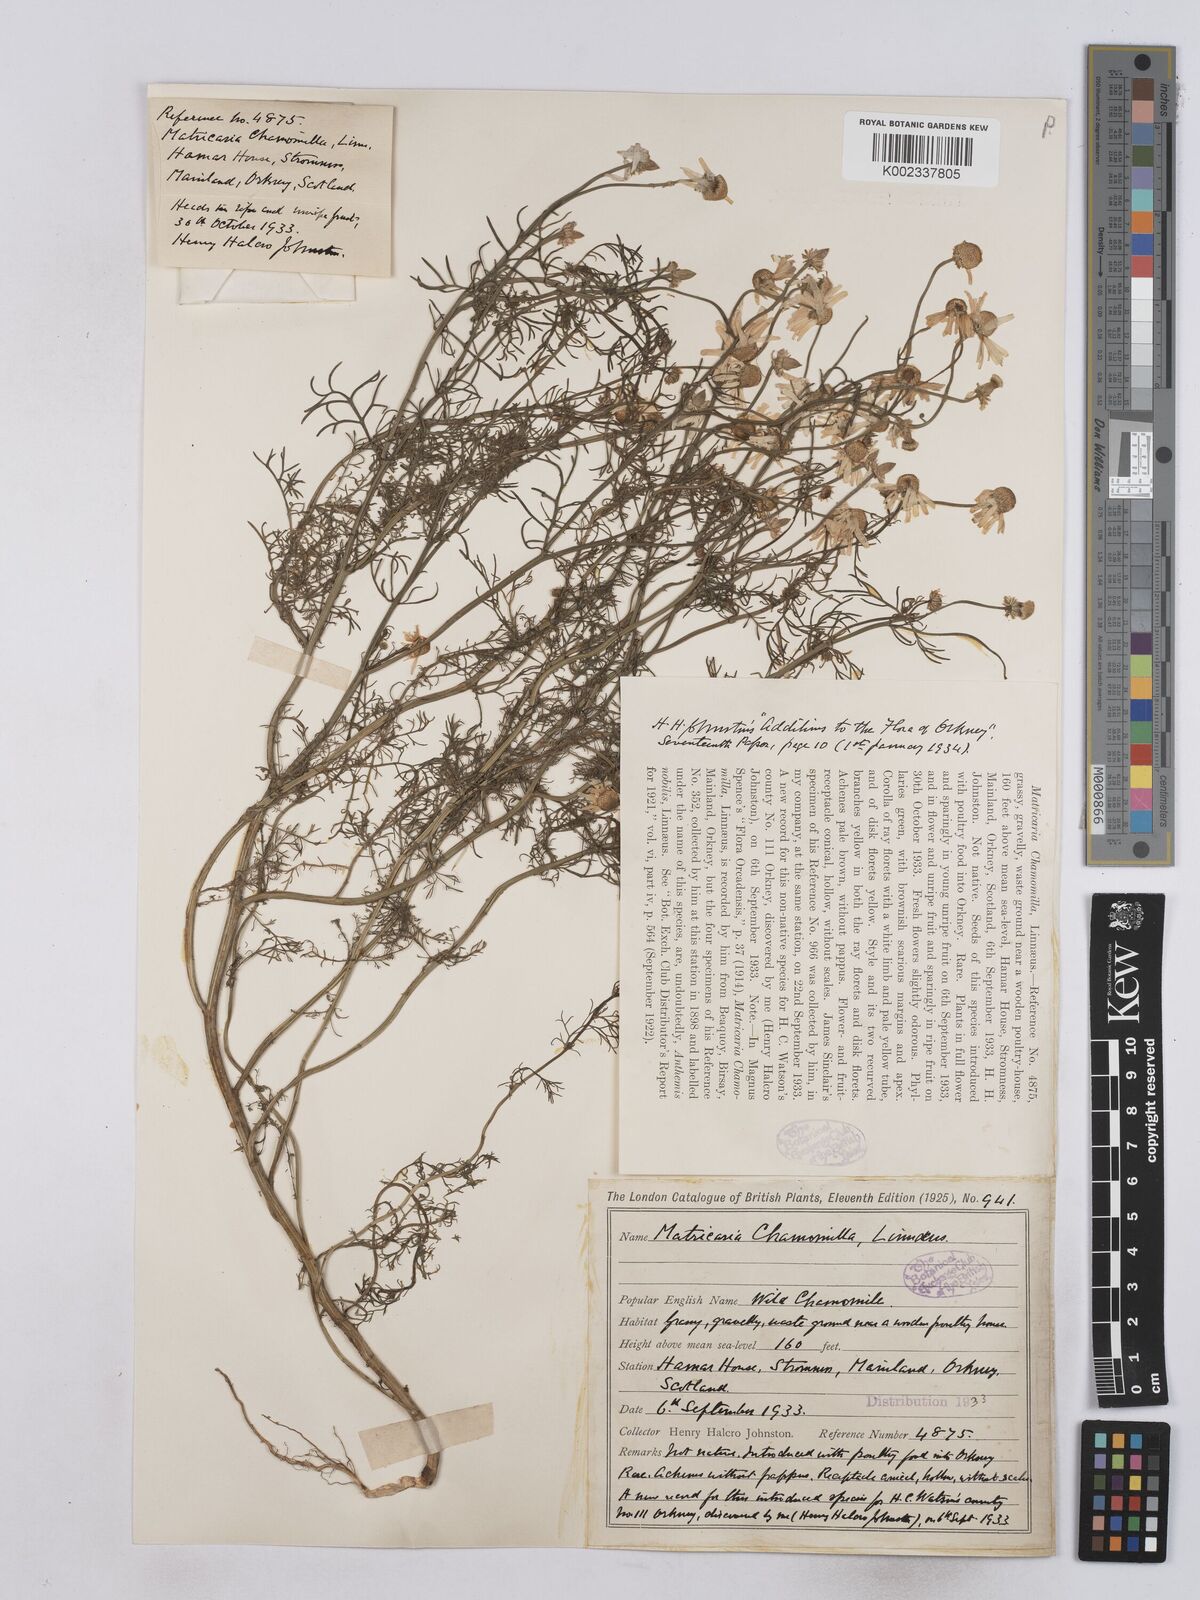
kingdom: Plantae
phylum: Tracheophyta
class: Magnoliopsida
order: Asterales
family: Asteraceae
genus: Matricaria
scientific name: Matricaria chamomilla
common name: Scented mayweed
